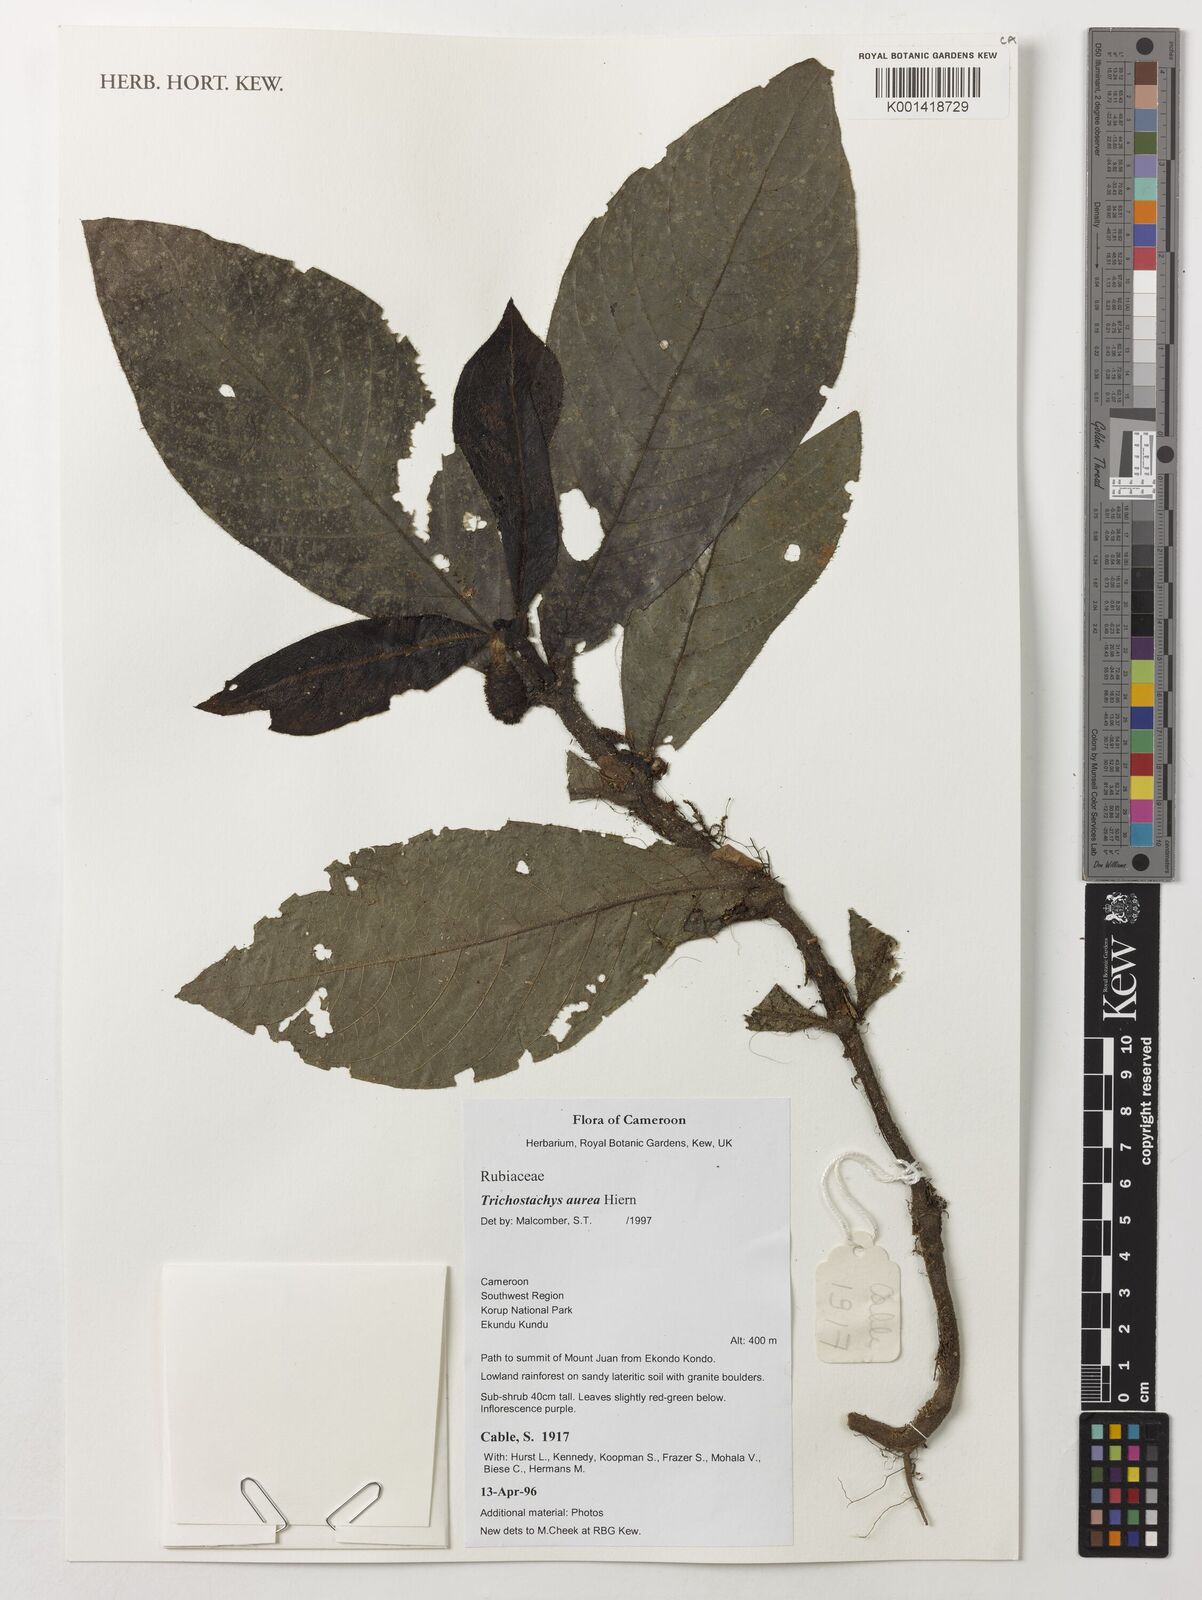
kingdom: Plantae
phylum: Tracheophyta
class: Magnoliopsida
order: Gentianales
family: Rubiaceae
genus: Trichostachys
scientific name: Trichostachys aurea
